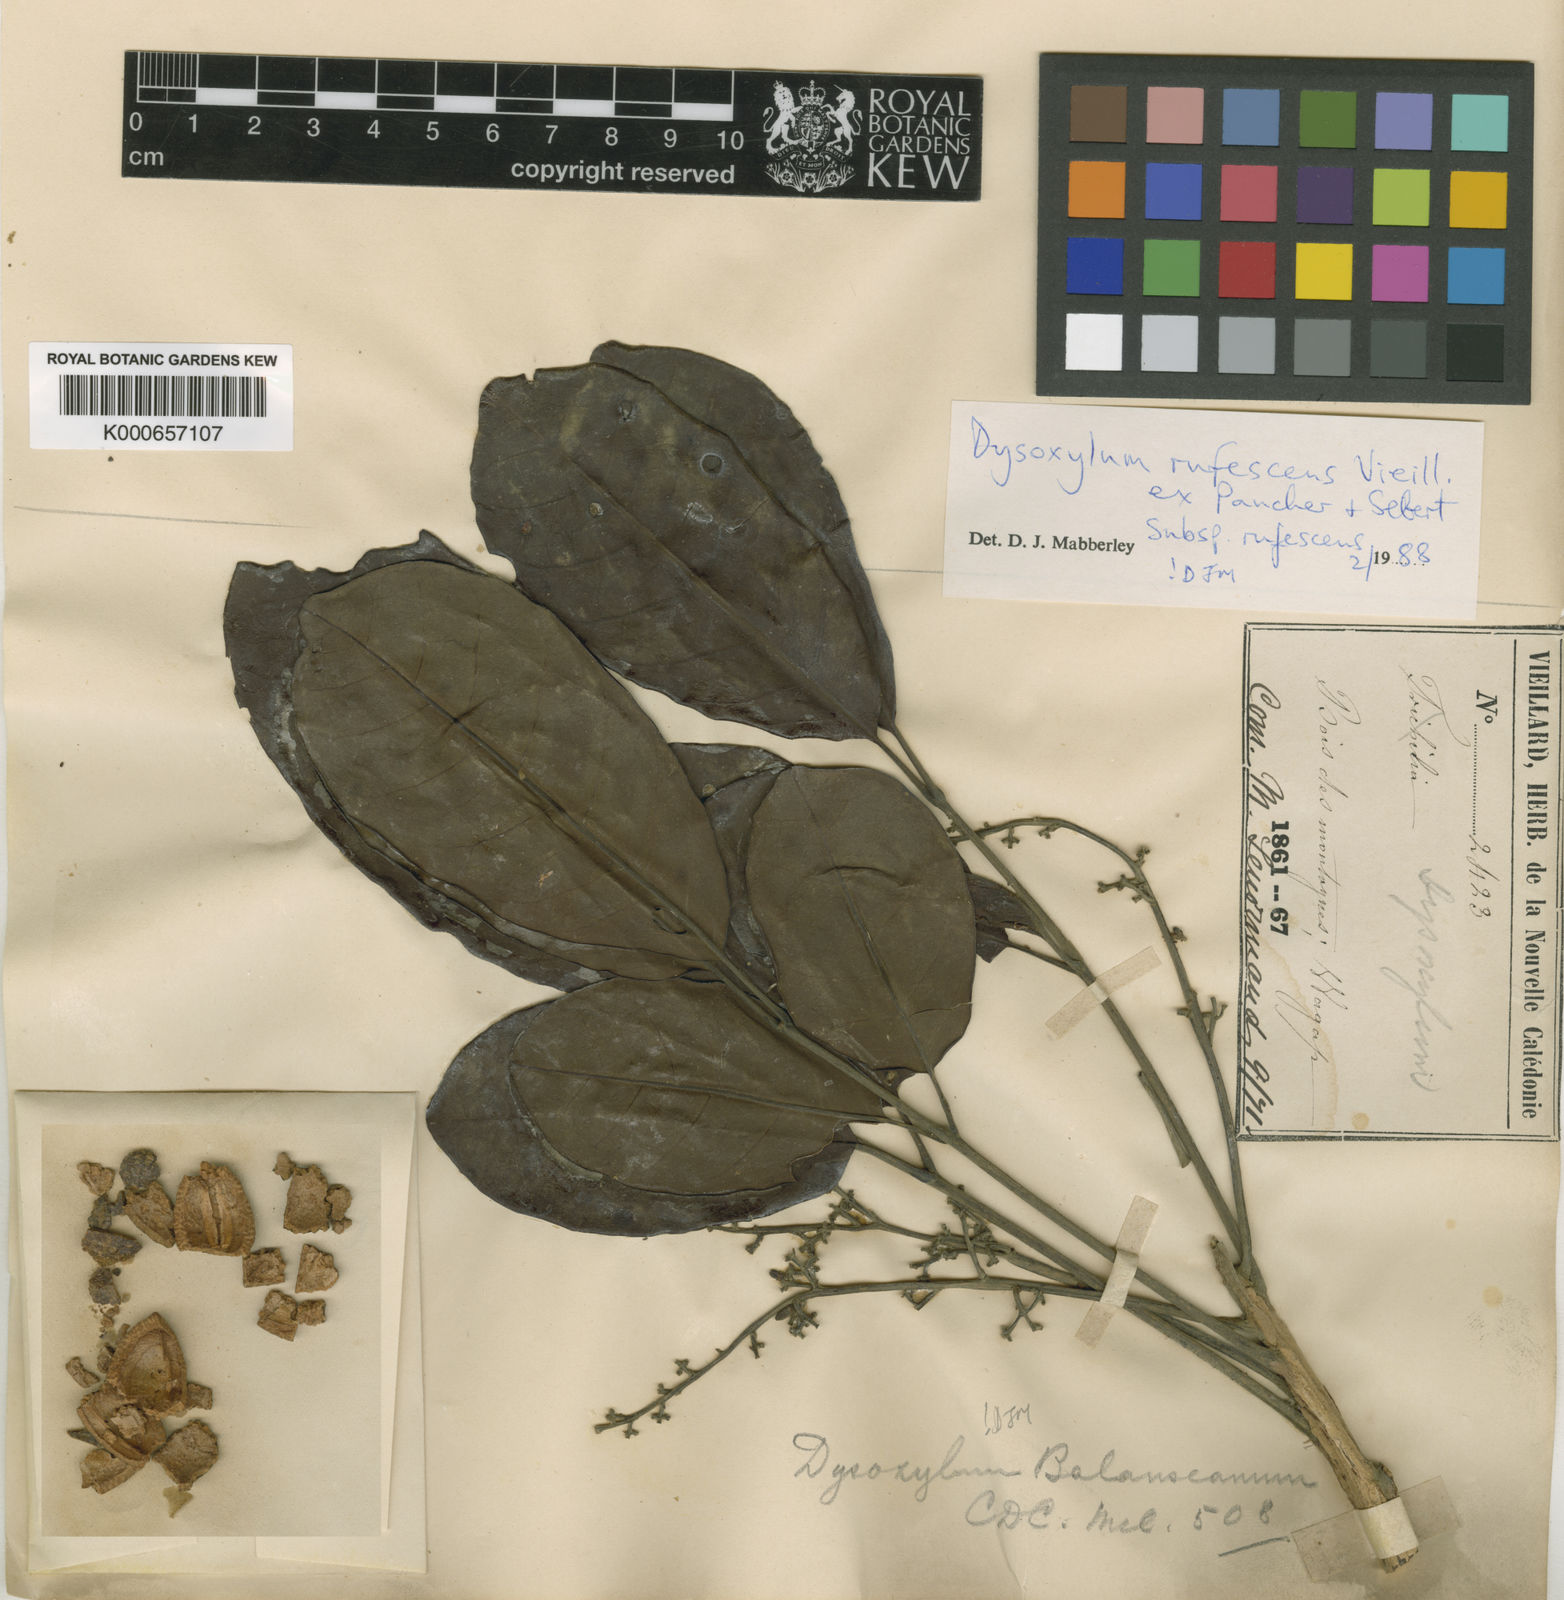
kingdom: Plantae
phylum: Tracheophyta
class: Magnoliopsida
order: Sapindales
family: Meliaceae
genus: Didymocheton
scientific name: Didymocheton rufescens
